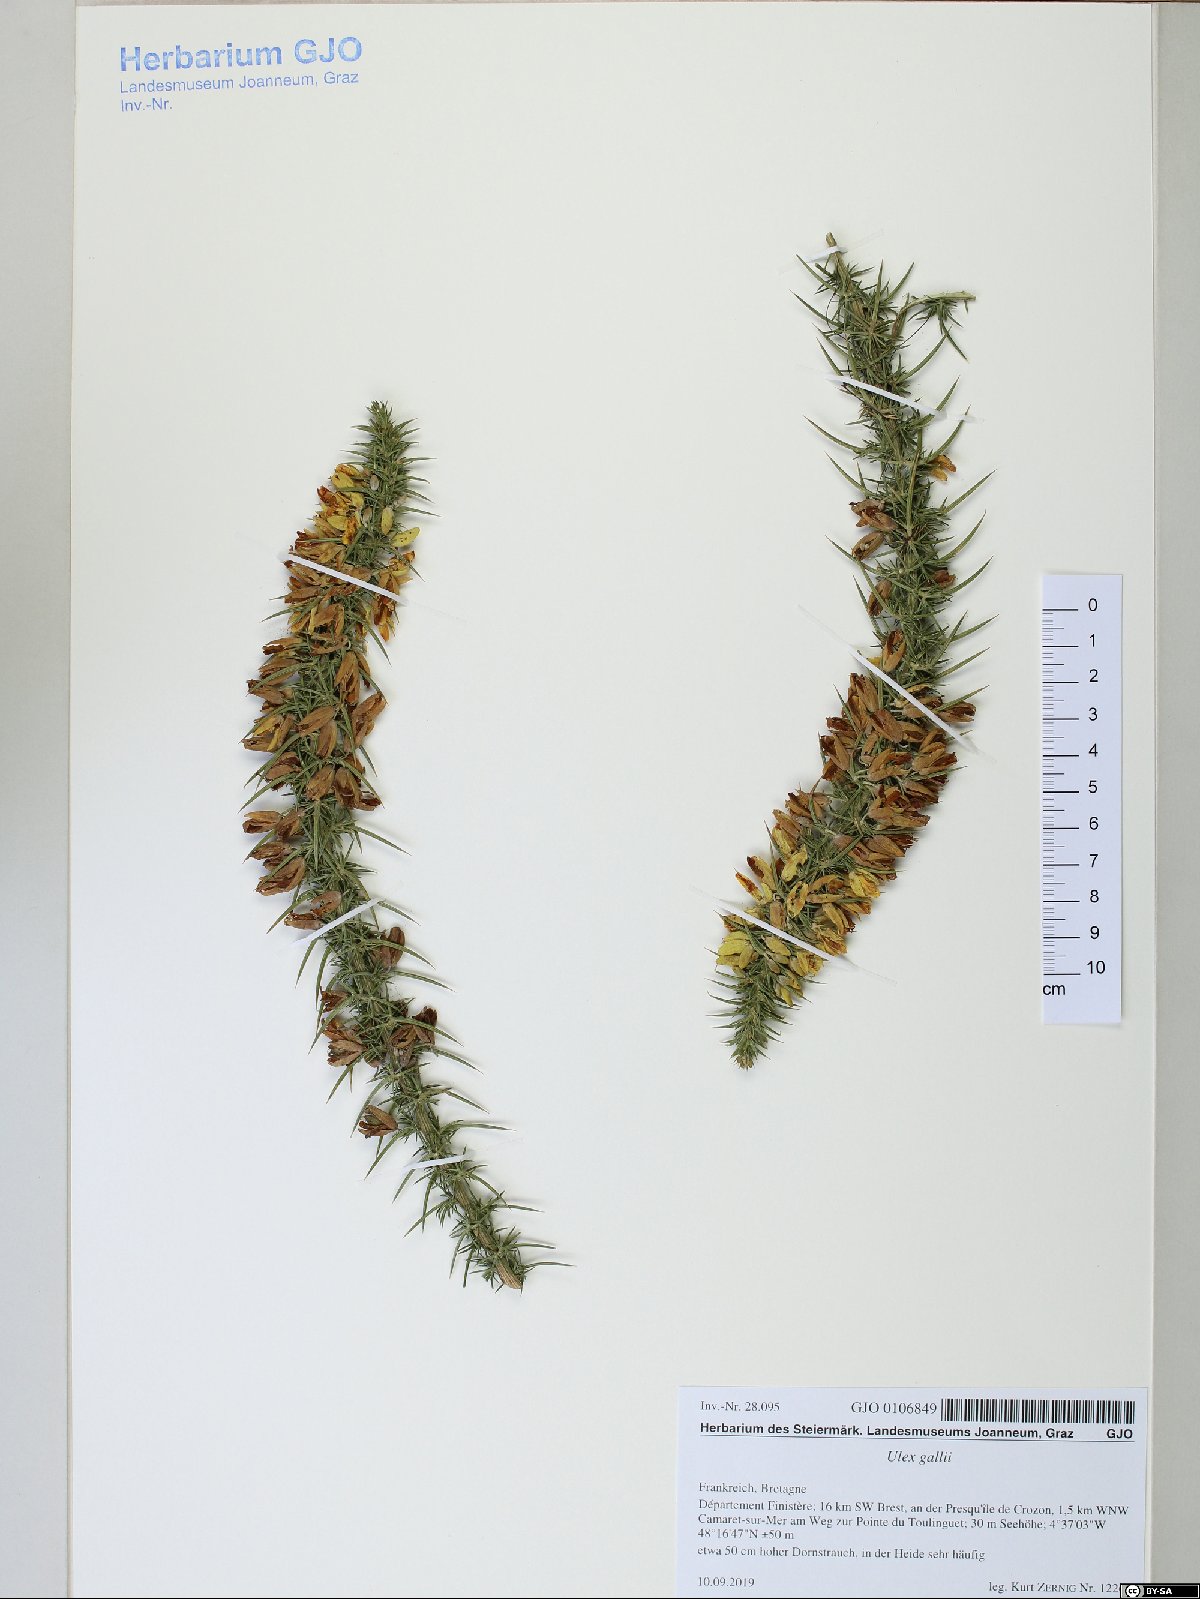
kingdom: Plantae
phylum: Tracheophyta
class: Magnoliopsida
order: Fabales
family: Fabaceae
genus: Ulex
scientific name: Ulex gallii
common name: Western gorse
